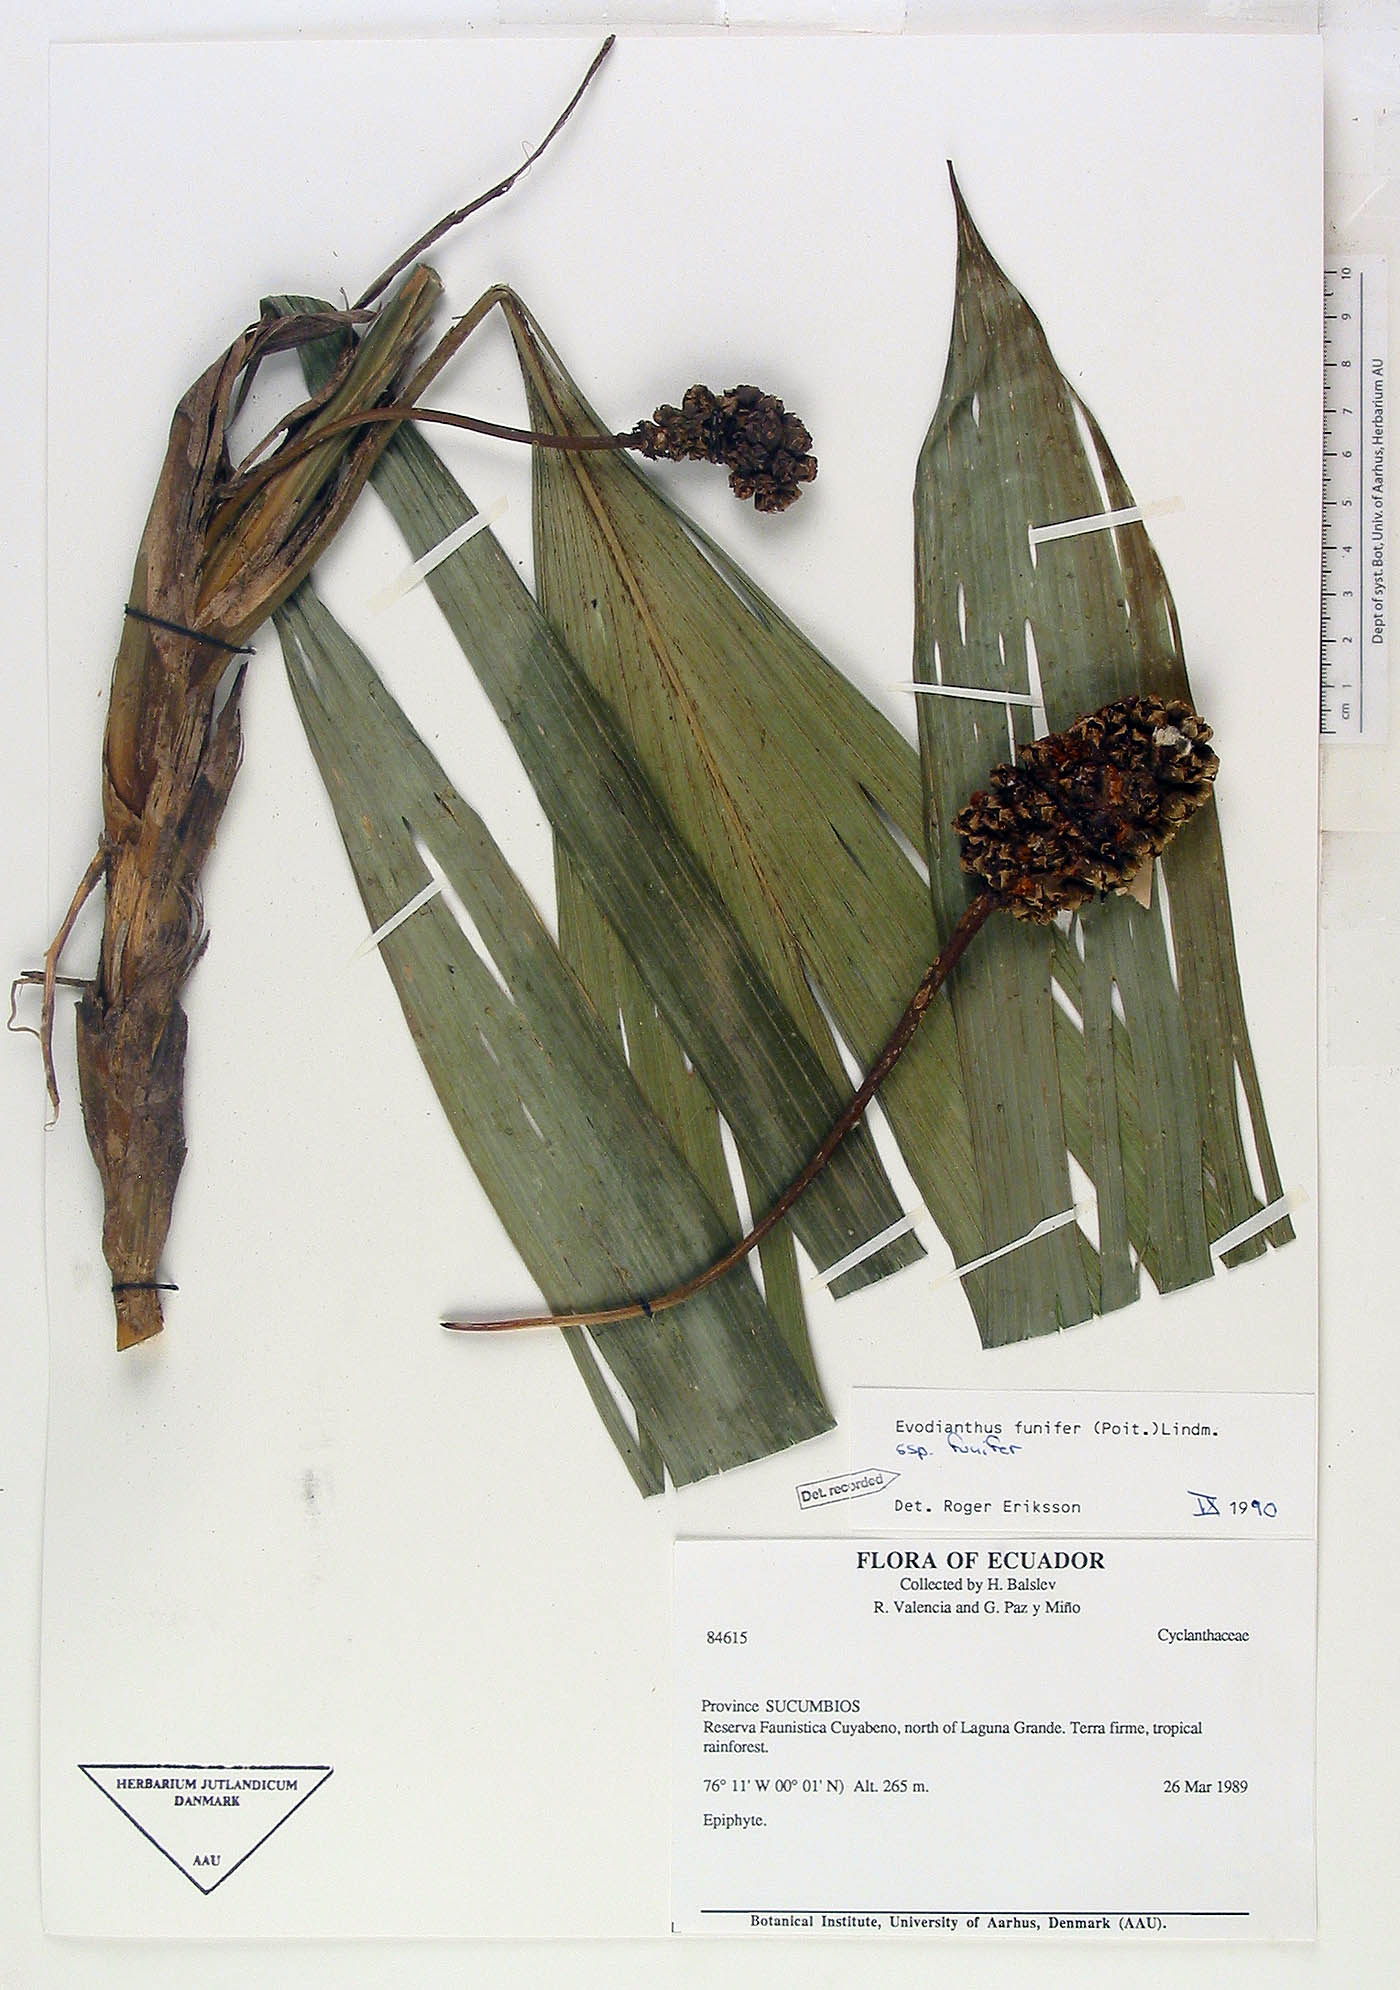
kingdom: Plantae
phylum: Tracheophyta
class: Liliopsida
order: Pandanales
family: Cyclanthaceae
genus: Evodianthus
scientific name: Evodianthus funifer
